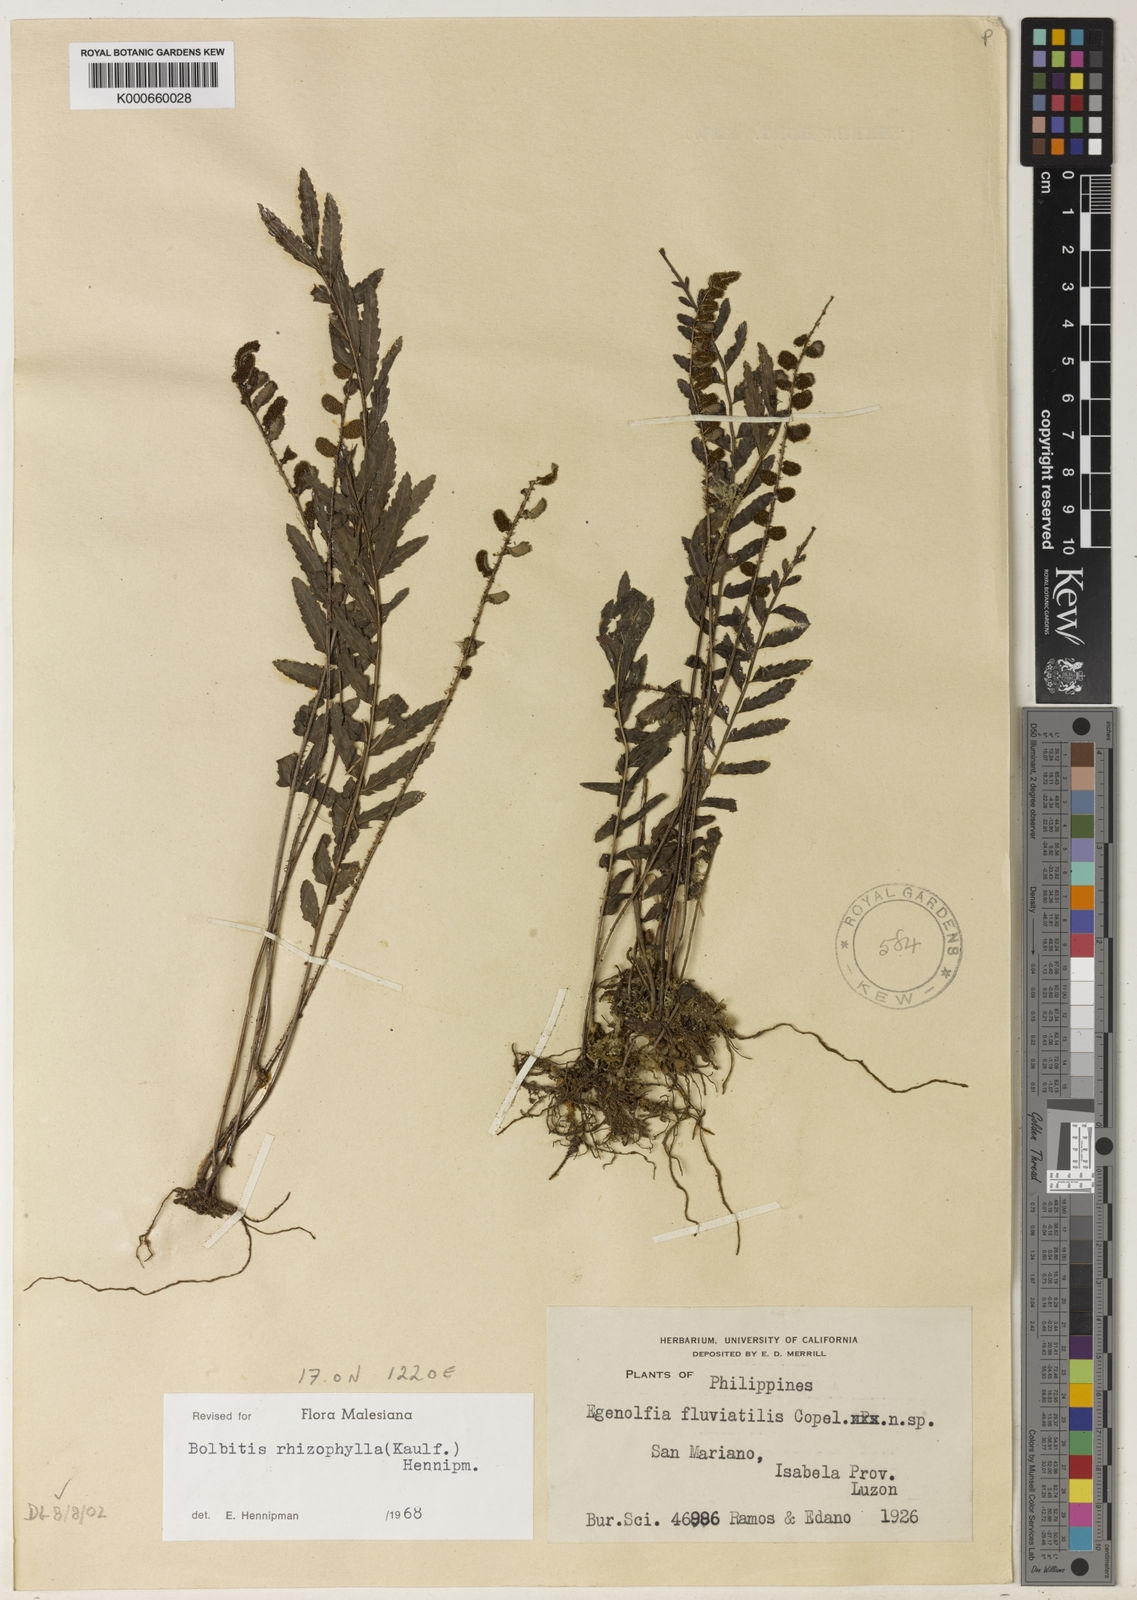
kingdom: Plantae
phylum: Tracheophyta
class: Polypodiopsida
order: Polypodiales
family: Dryopteridaceae
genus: Bolbitis
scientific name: Bolbitis rhizophylla
